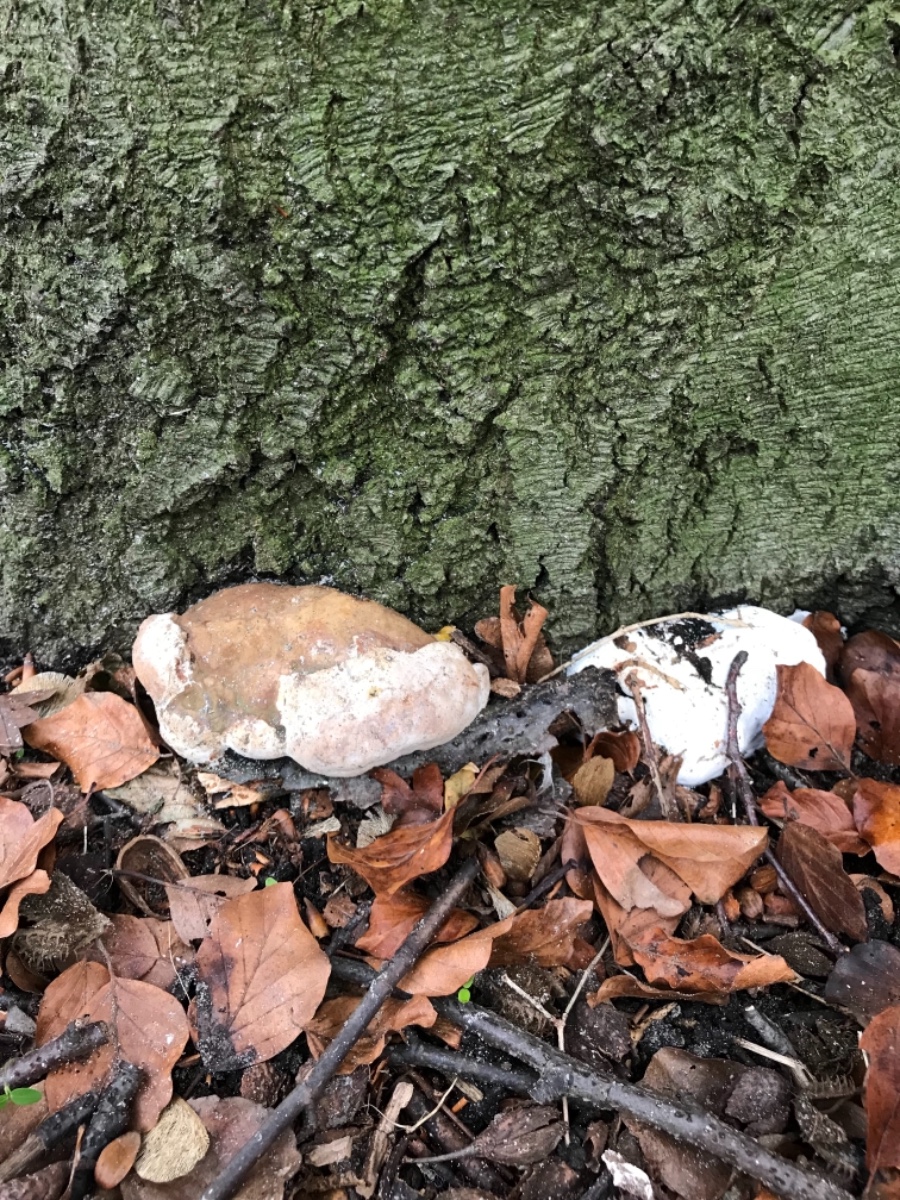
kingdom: Fungi
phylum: Basidiomycota
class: Agaricomycetes
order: Polyporales
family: Polyporaceae
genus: Fomes
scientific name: Fomes fomentarius
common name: tøndersvamp
